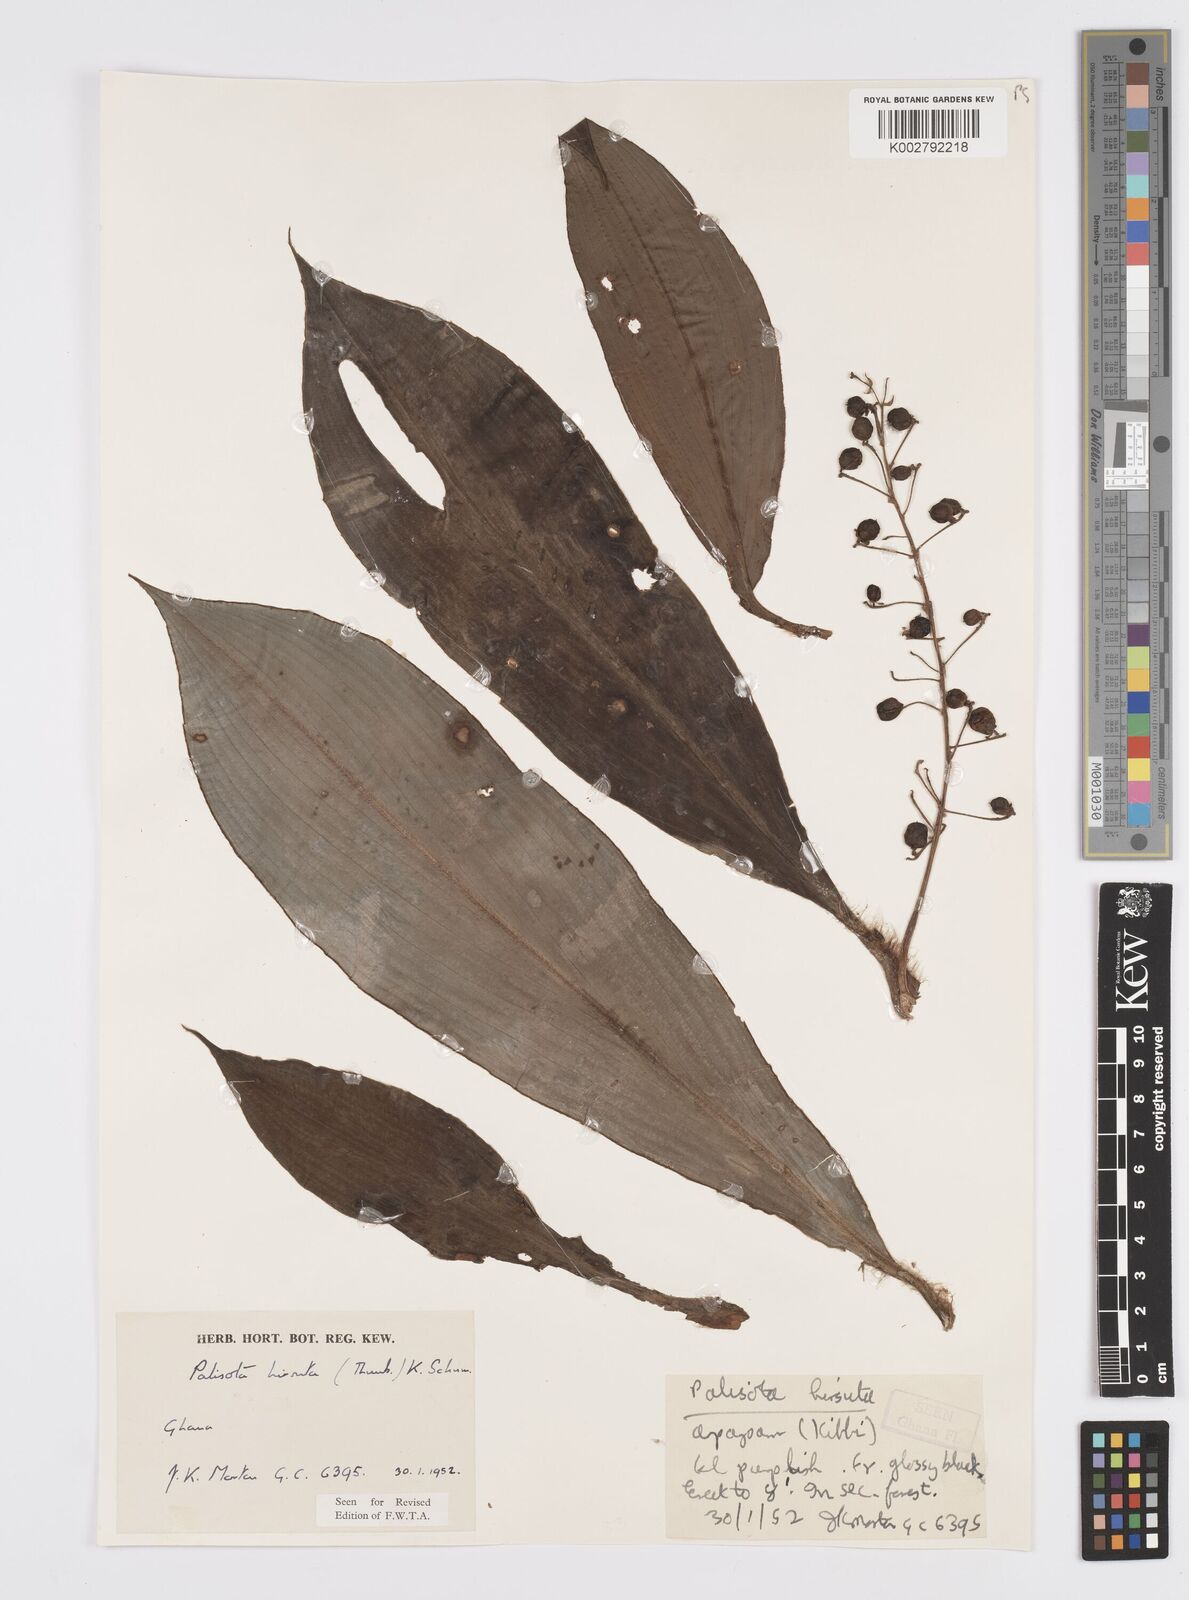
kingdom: Plantae
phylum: Tracheophyta
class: Liliopsida
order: Commelinales
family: Commelinaceae
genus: Palisota
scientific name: Palisota hirsuta
